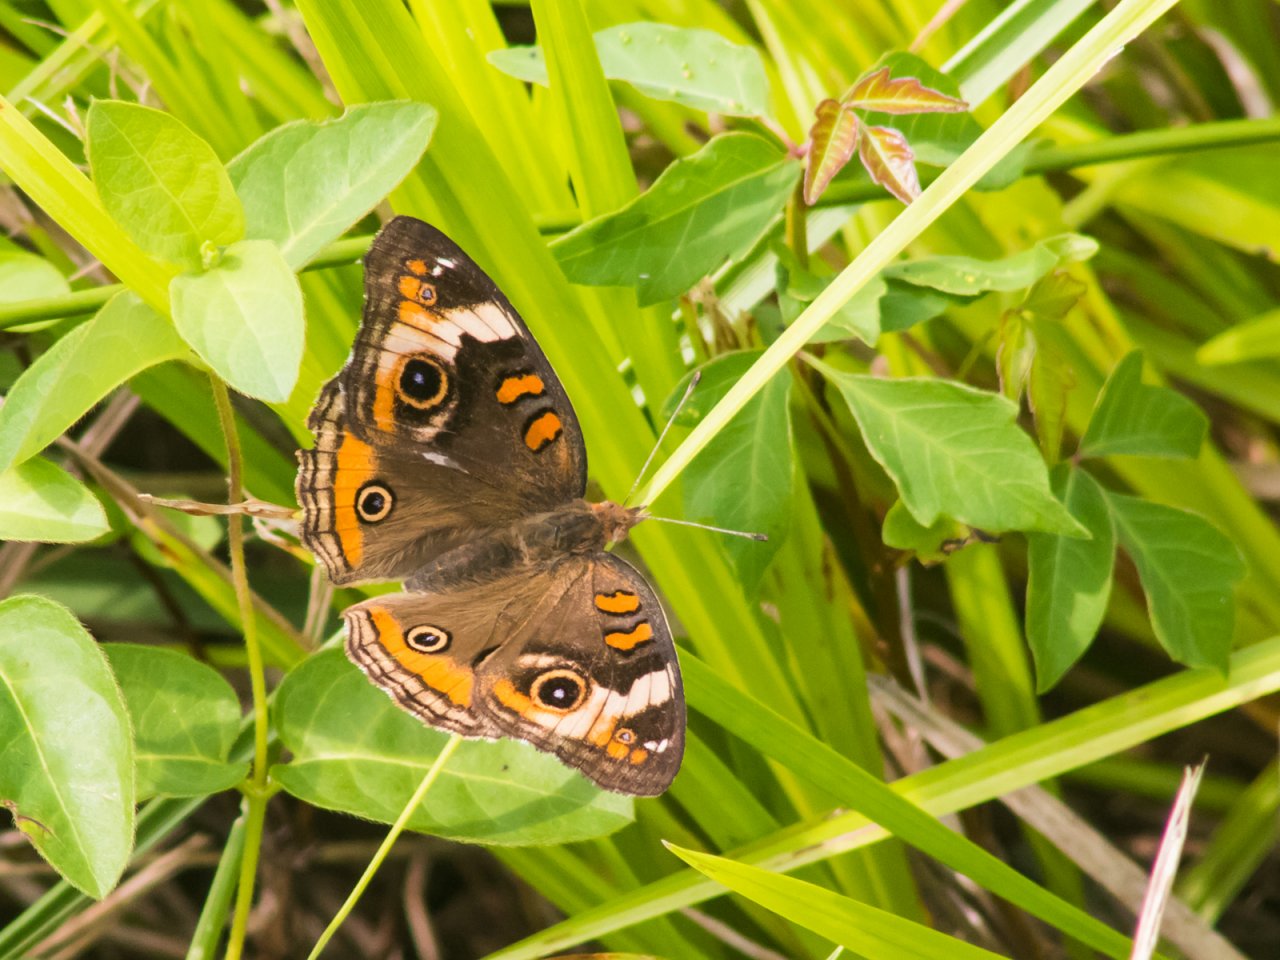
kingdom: Animalia
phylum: Arthropoda
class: Insecta
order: Lepidoptera
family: Nymphalidae
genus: Junonia
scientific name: Junonia coenia
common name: Common Buckeye
